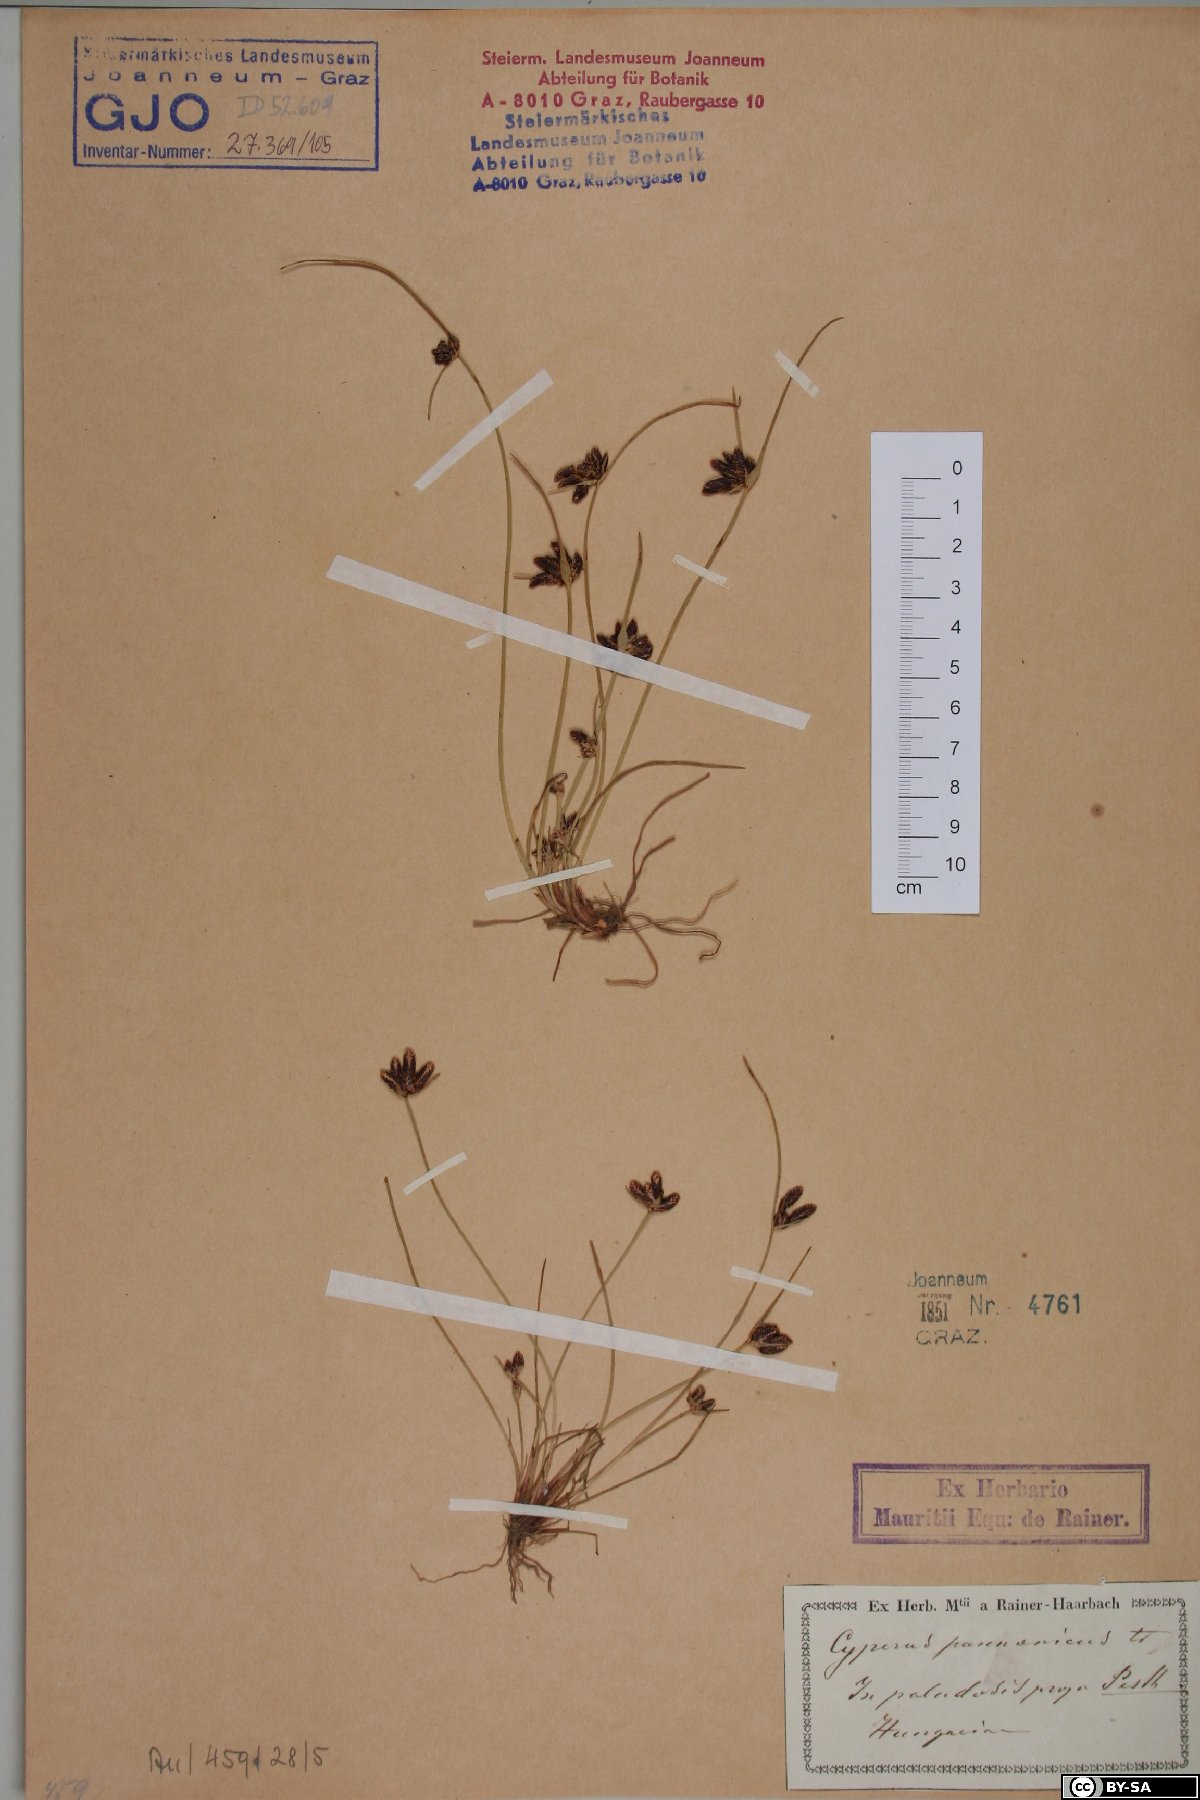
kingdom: Plantae
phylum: Tracheophyta
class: Liliopsida
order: Poales
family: Cyperaceae
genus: Cyperus
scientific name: Cyperus pannonicus
